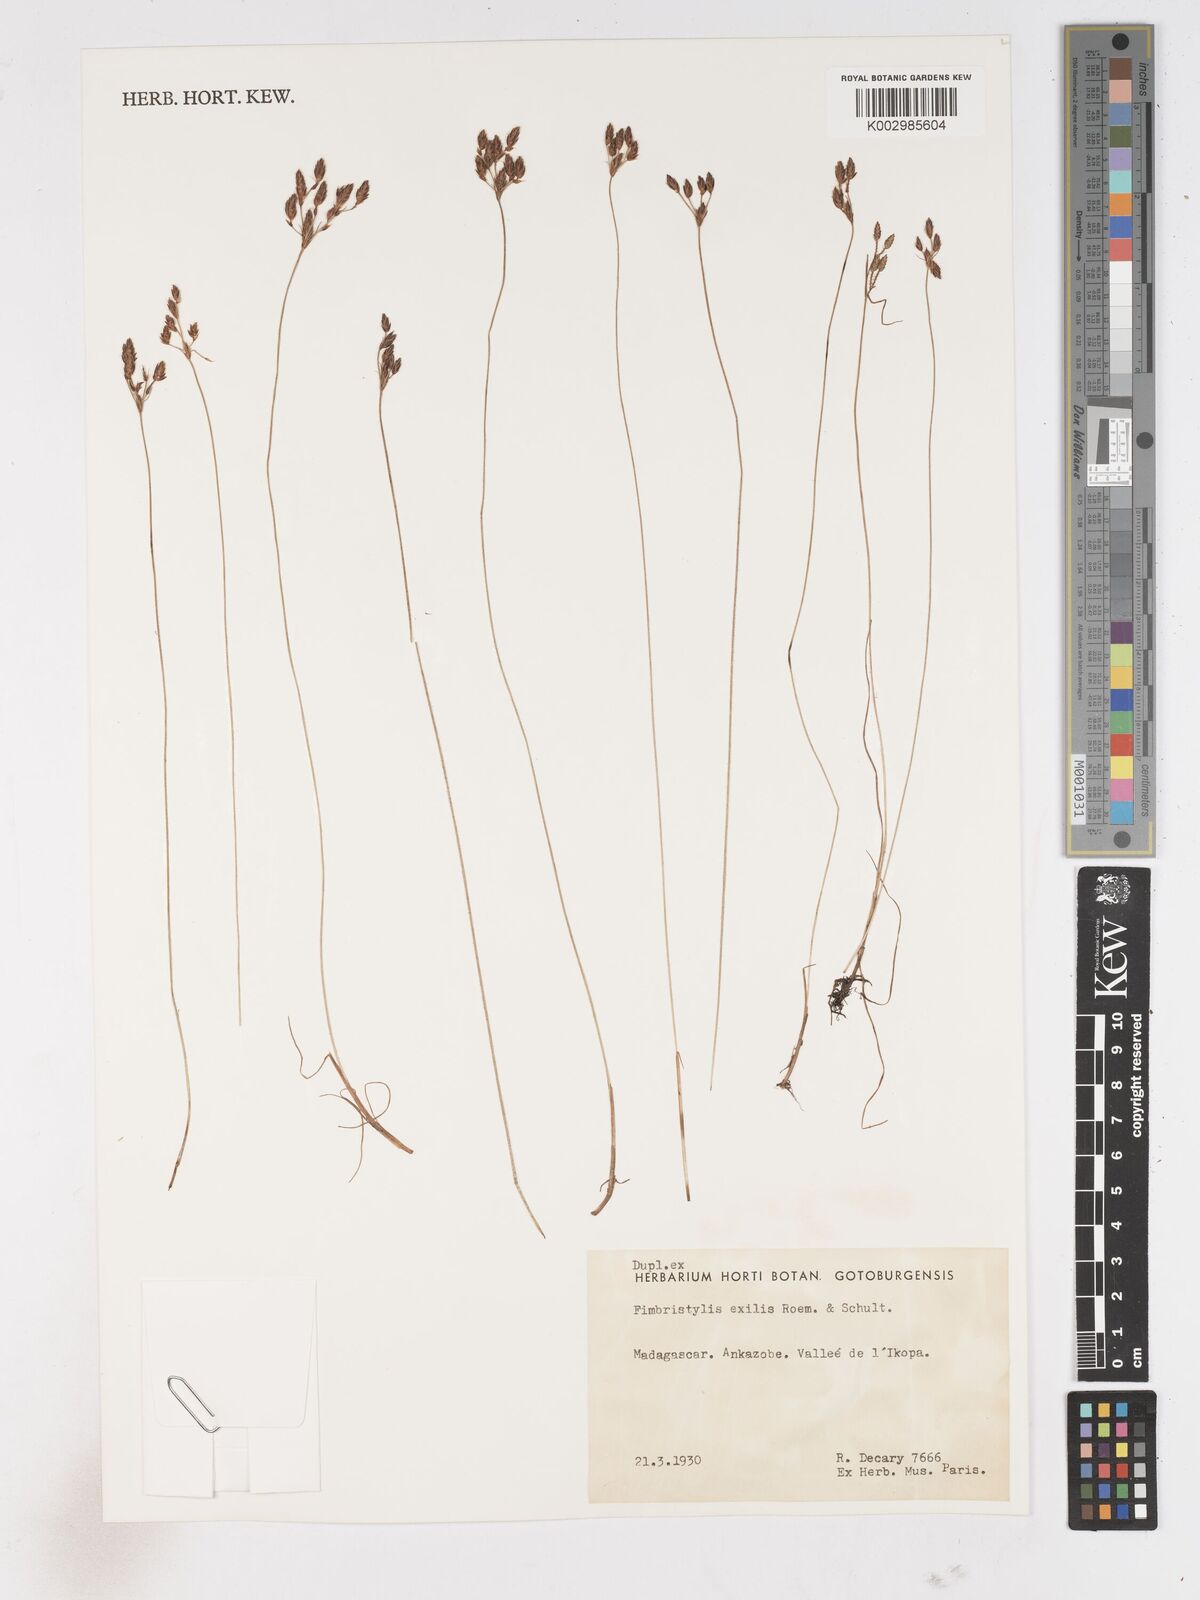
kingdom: Plantae
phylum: Tracheophyta
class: Liliopsida
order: Poales
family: Cyperaceae
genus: Bulbostylis
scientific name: Bulbostylis hispidula
